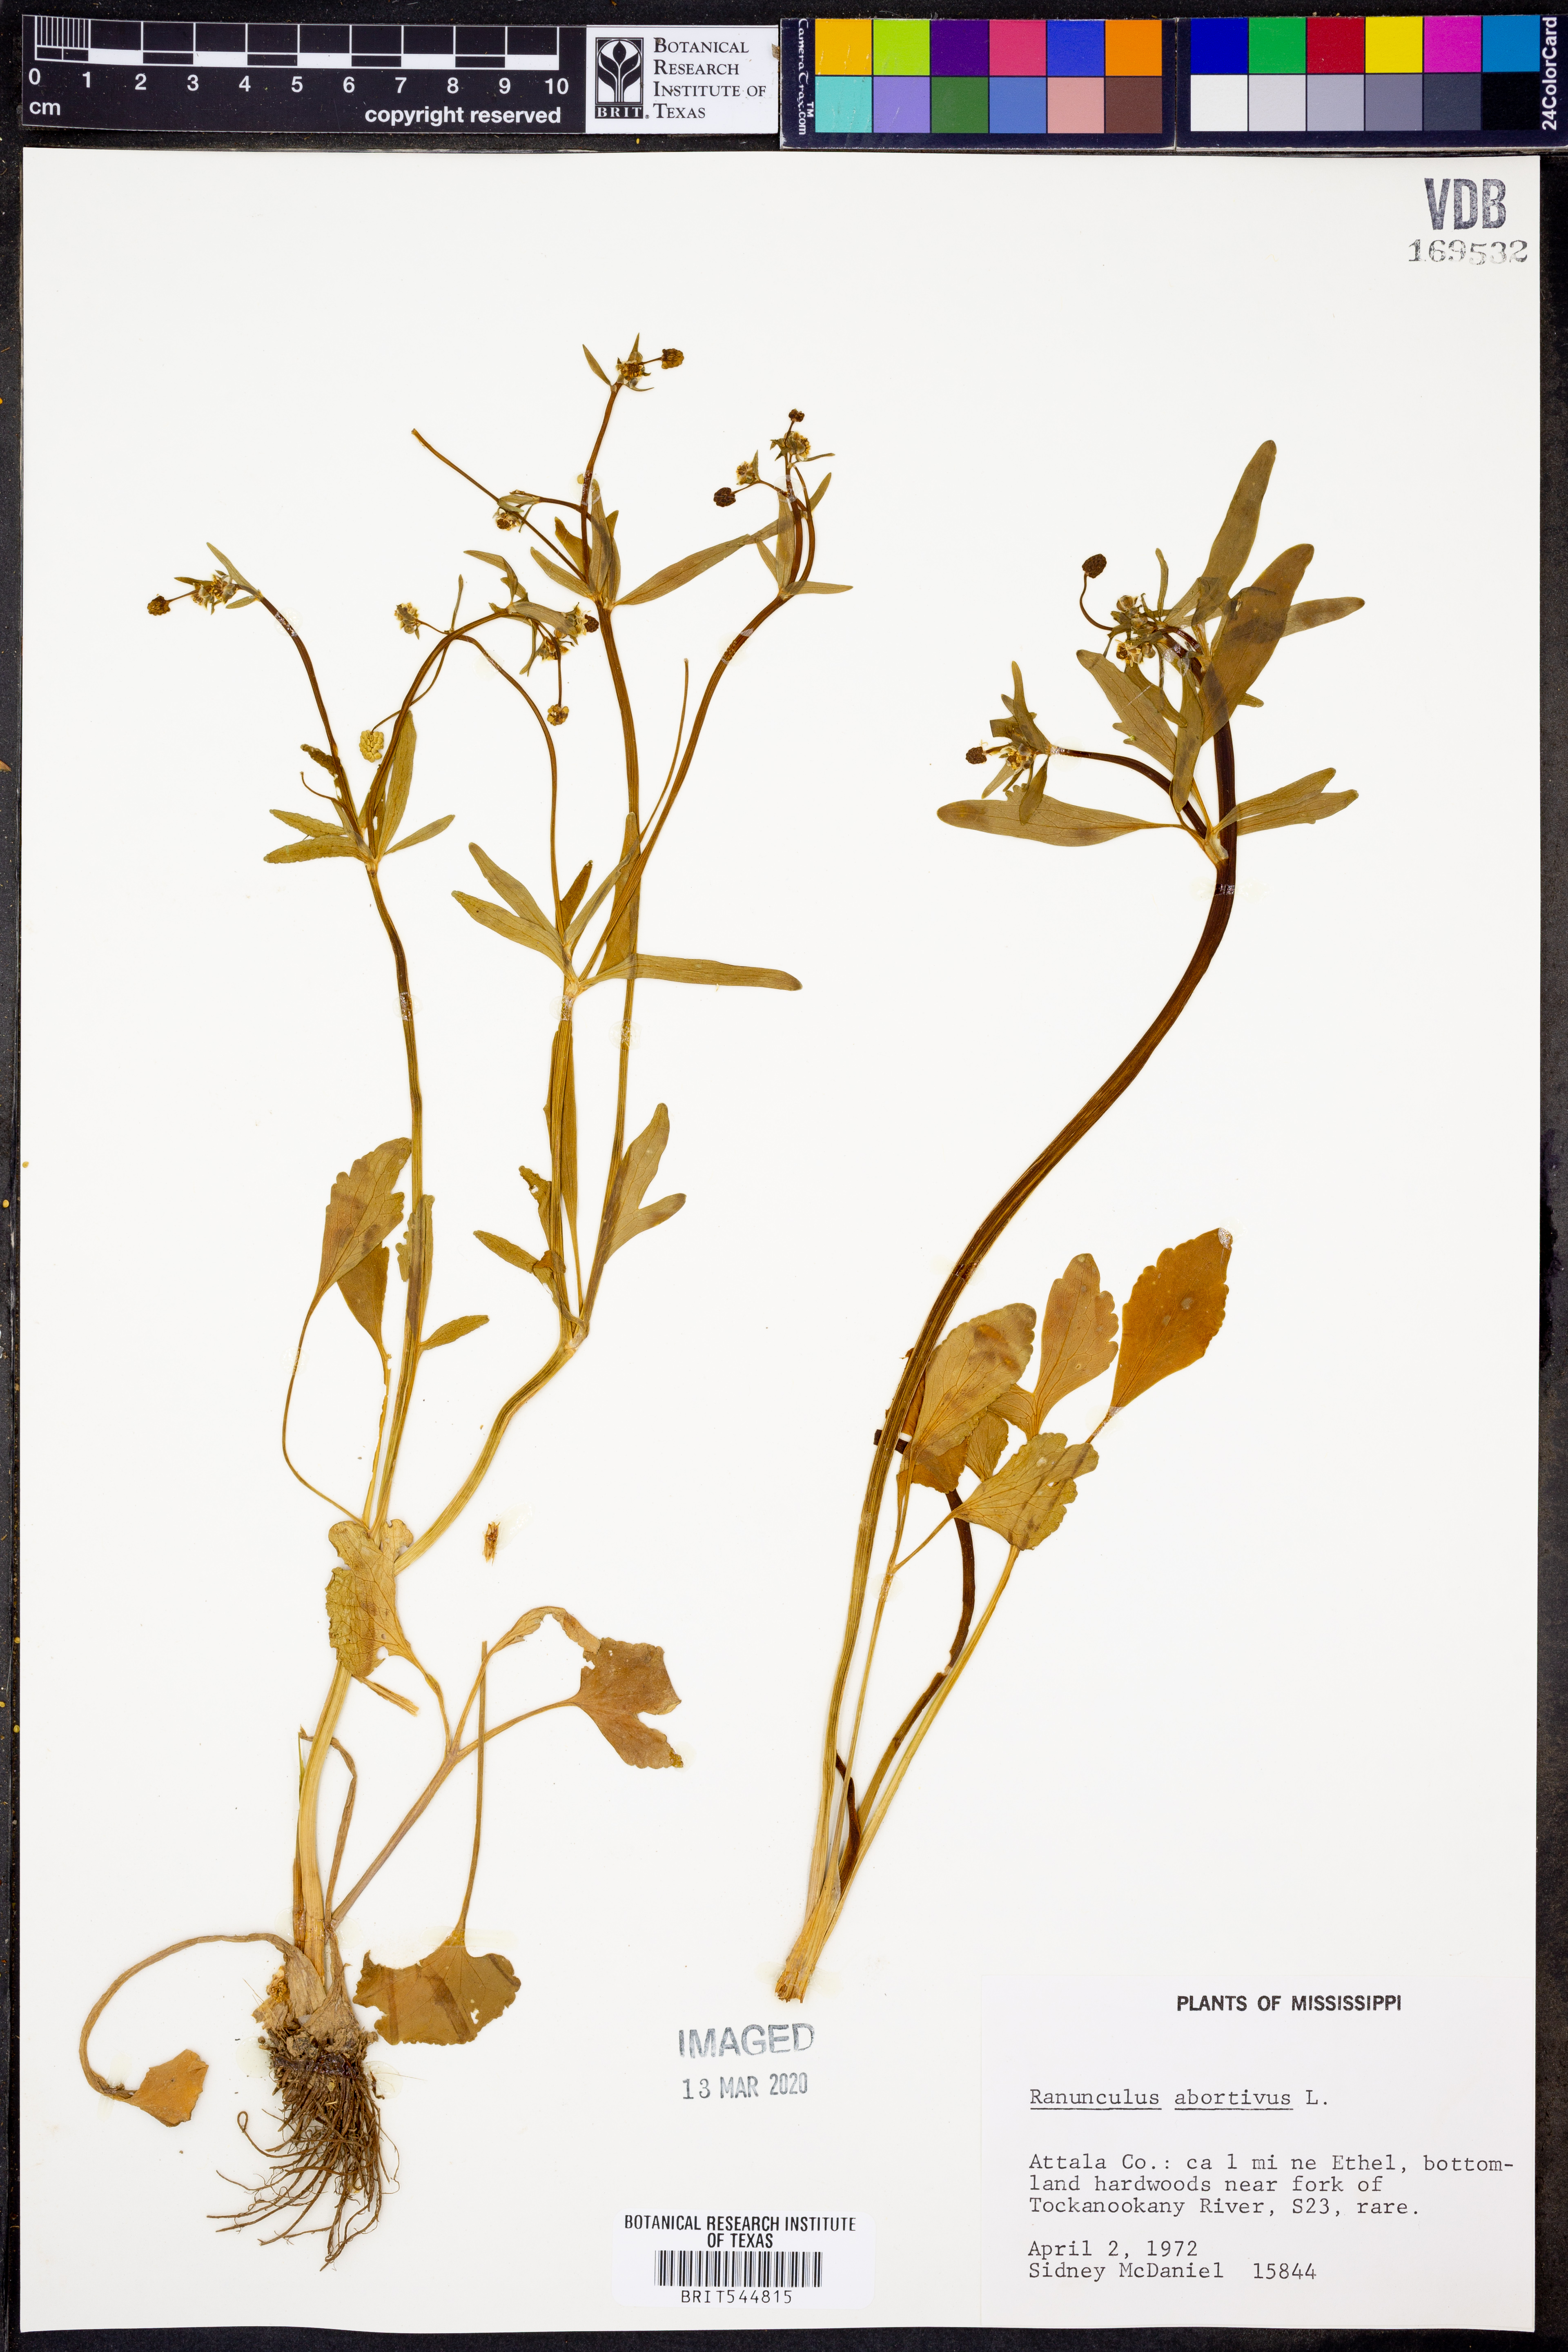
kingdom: Plantae
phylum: Tracheophyta
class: Magnoliopsida
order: Ranunculales
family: Ranunculaceae
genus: Ranunculus
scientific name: Ranunculus abortivus
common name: Early wood buttercup
